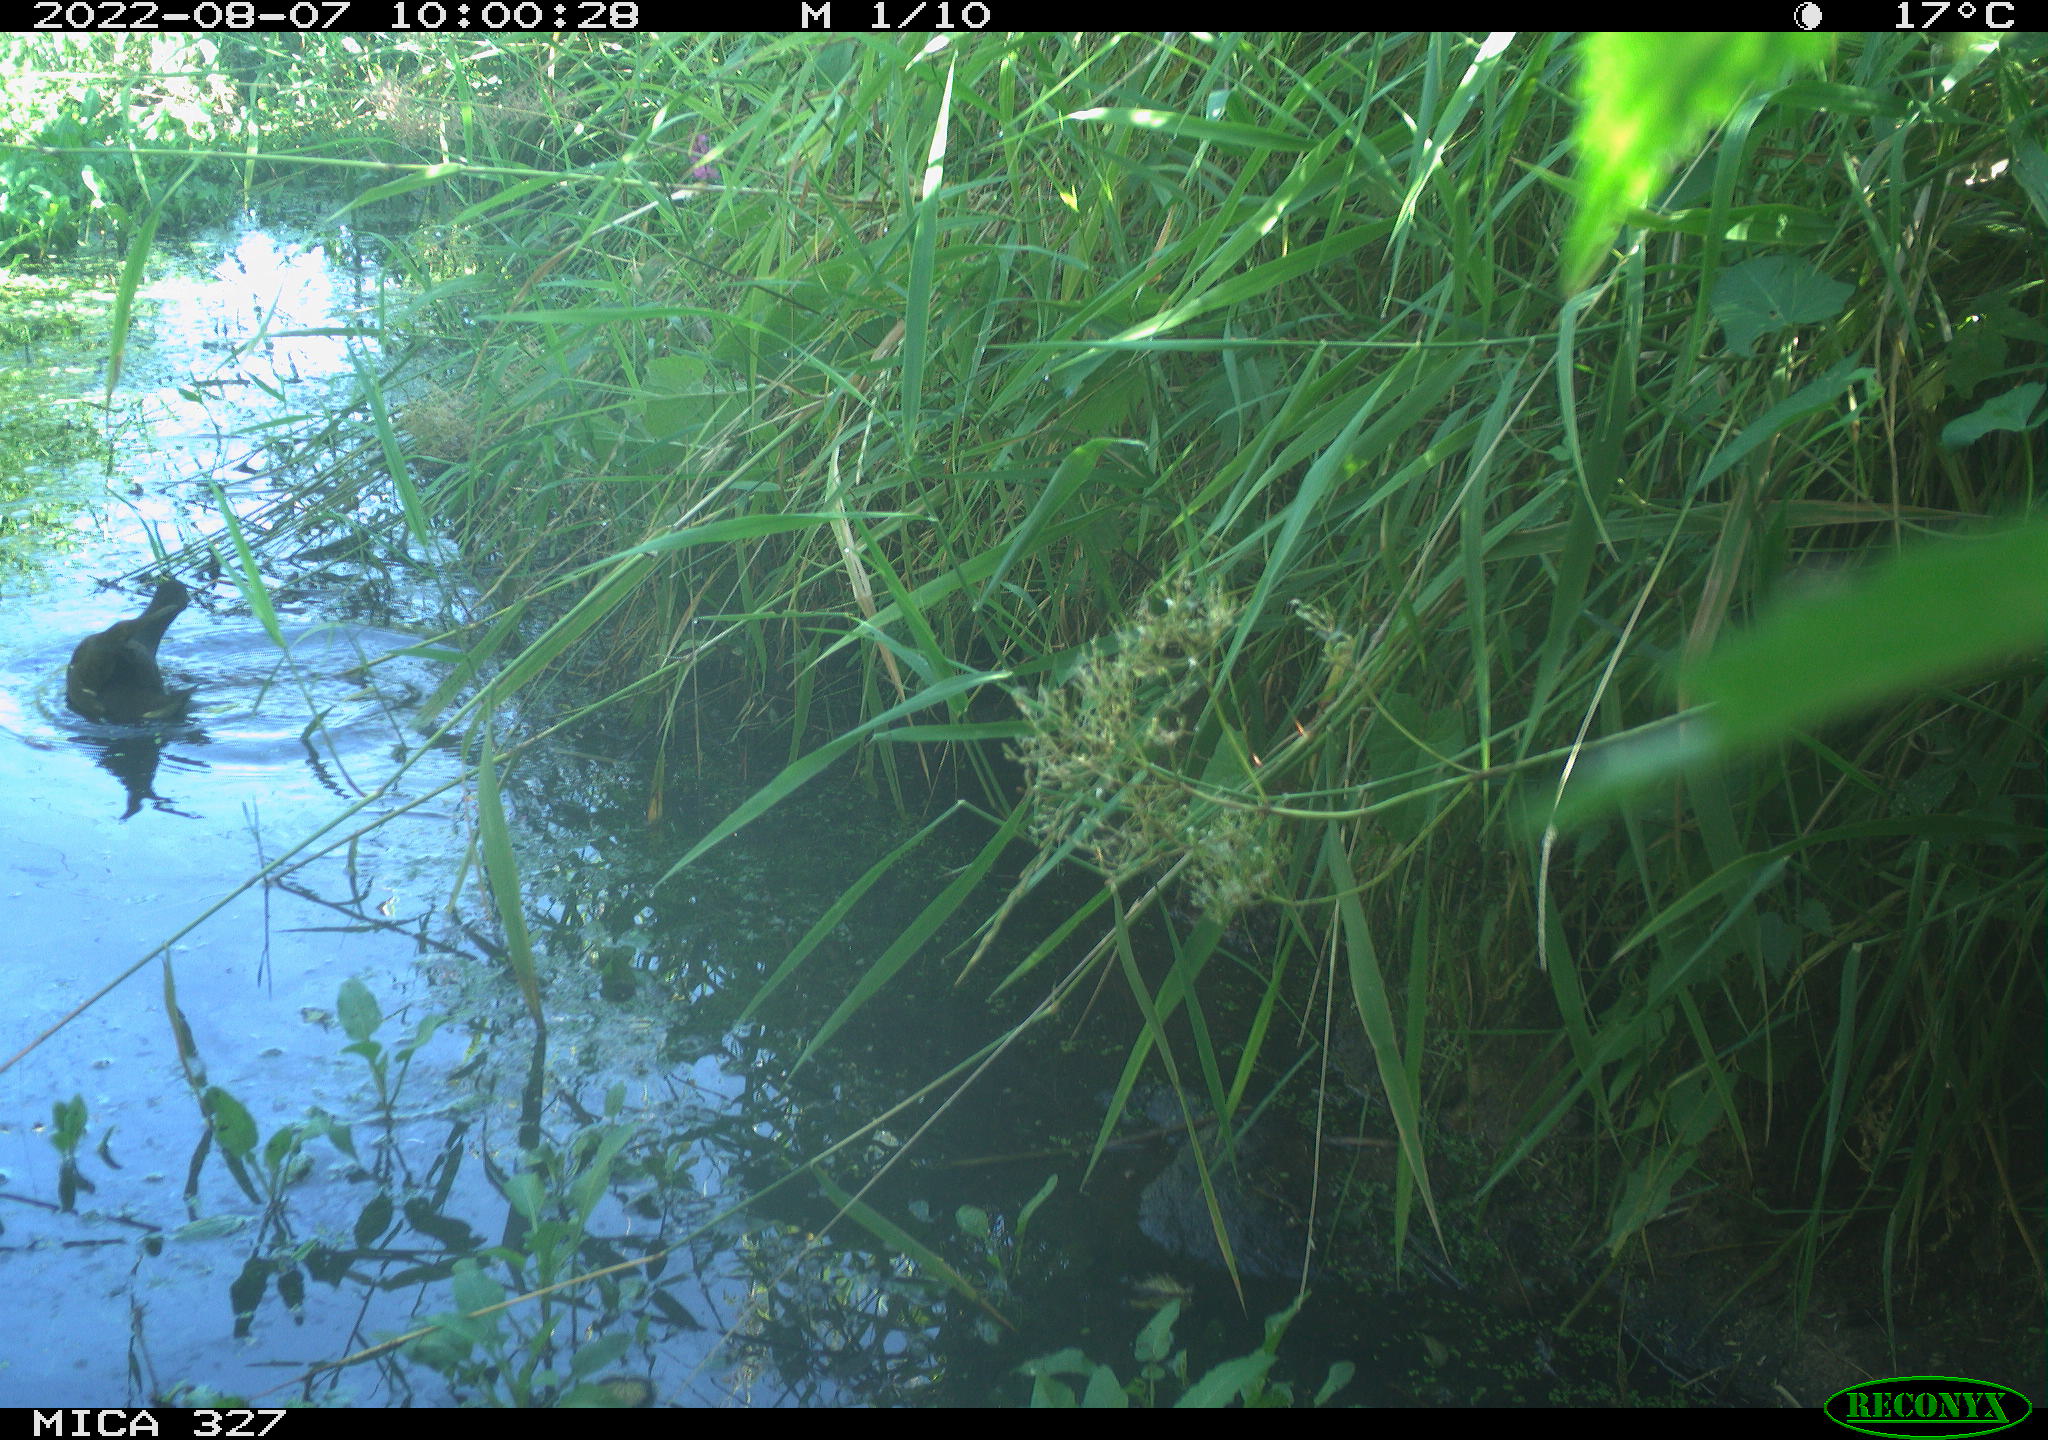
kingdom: Animalia
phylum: Chordata
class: Aves
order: Gruiformes
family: Rallidae
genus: Gallinula
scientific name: Gallinula chloropus
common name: Common moorhen
